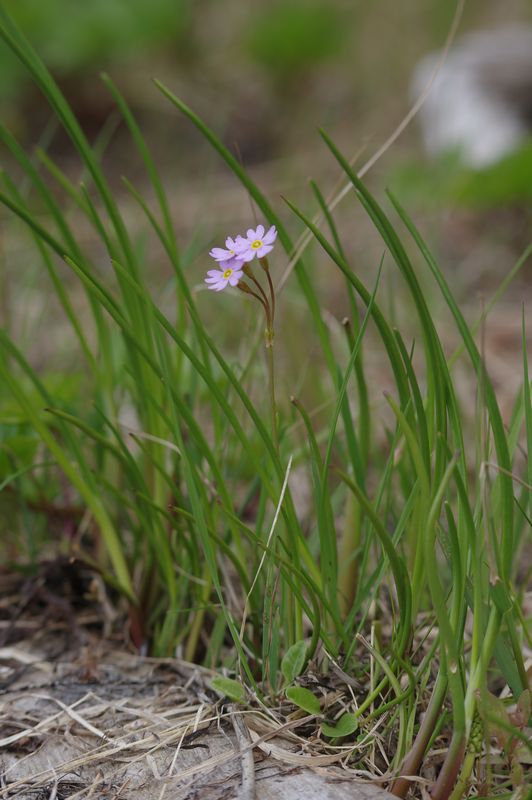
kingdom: Plantae
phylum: Tracheophyta
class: Magnoliopsida
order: Ericales
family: Primulaceae
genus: Primula
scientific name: Primula nutans
